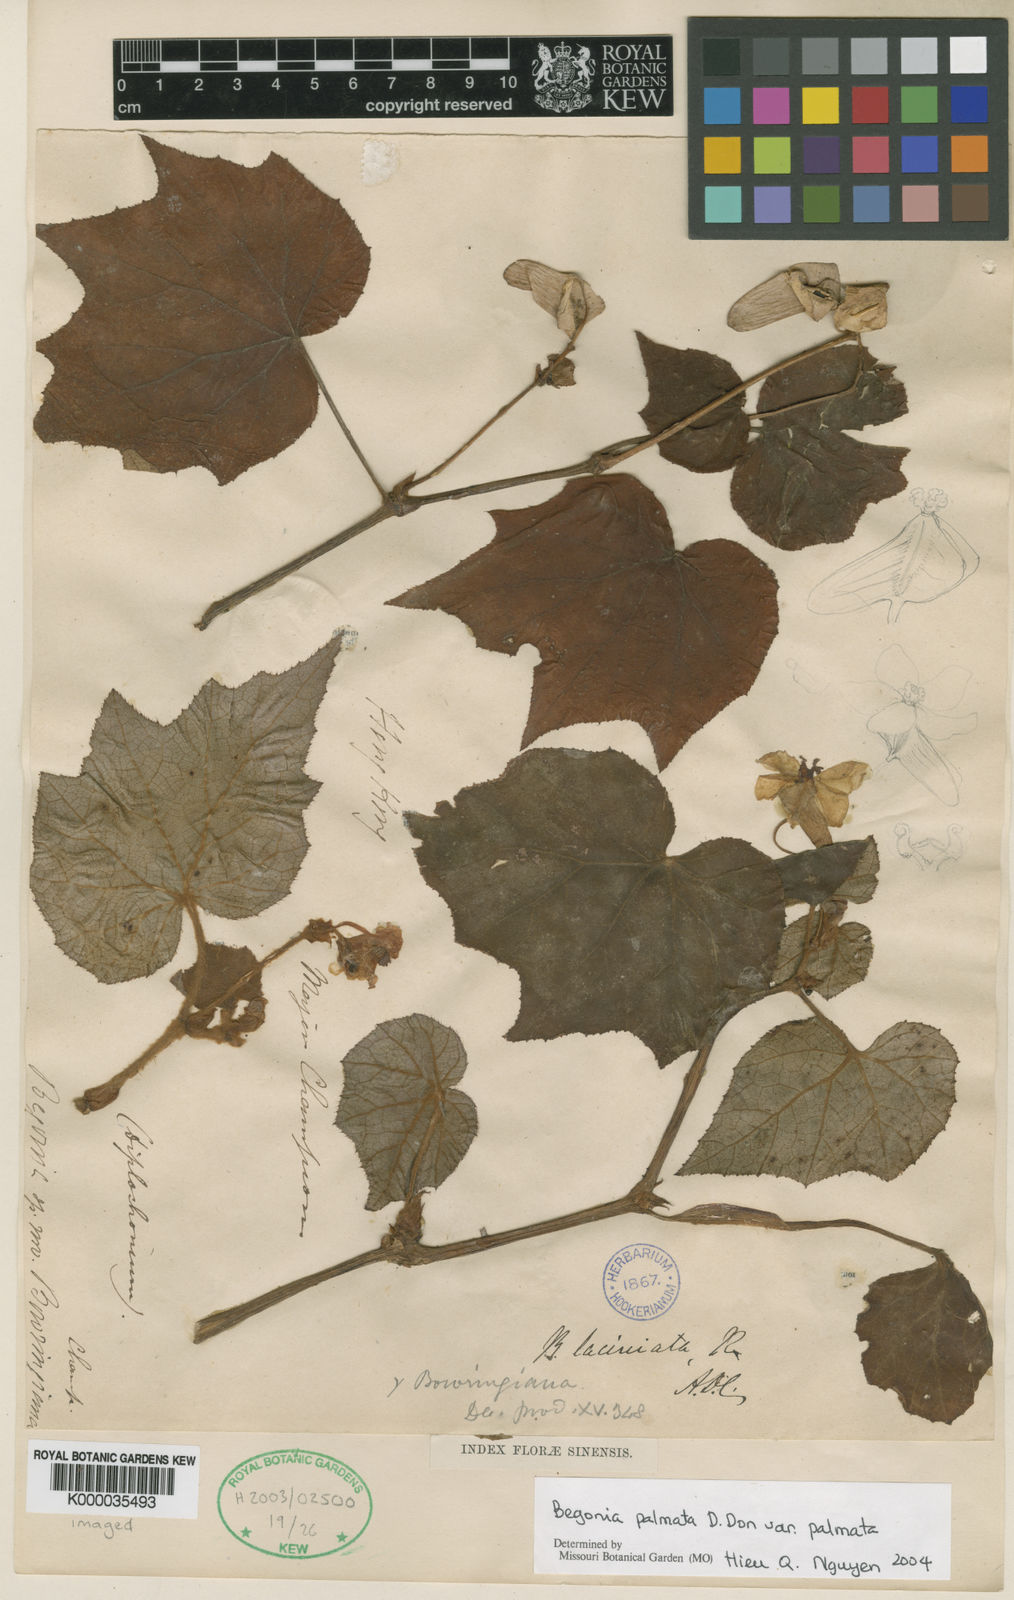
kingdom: Plantae
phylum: Tracheophyta
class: Magnoliopsida
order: Cucurbitales
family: Begoniaceae
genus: Begonia
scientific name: Begonia palmata
